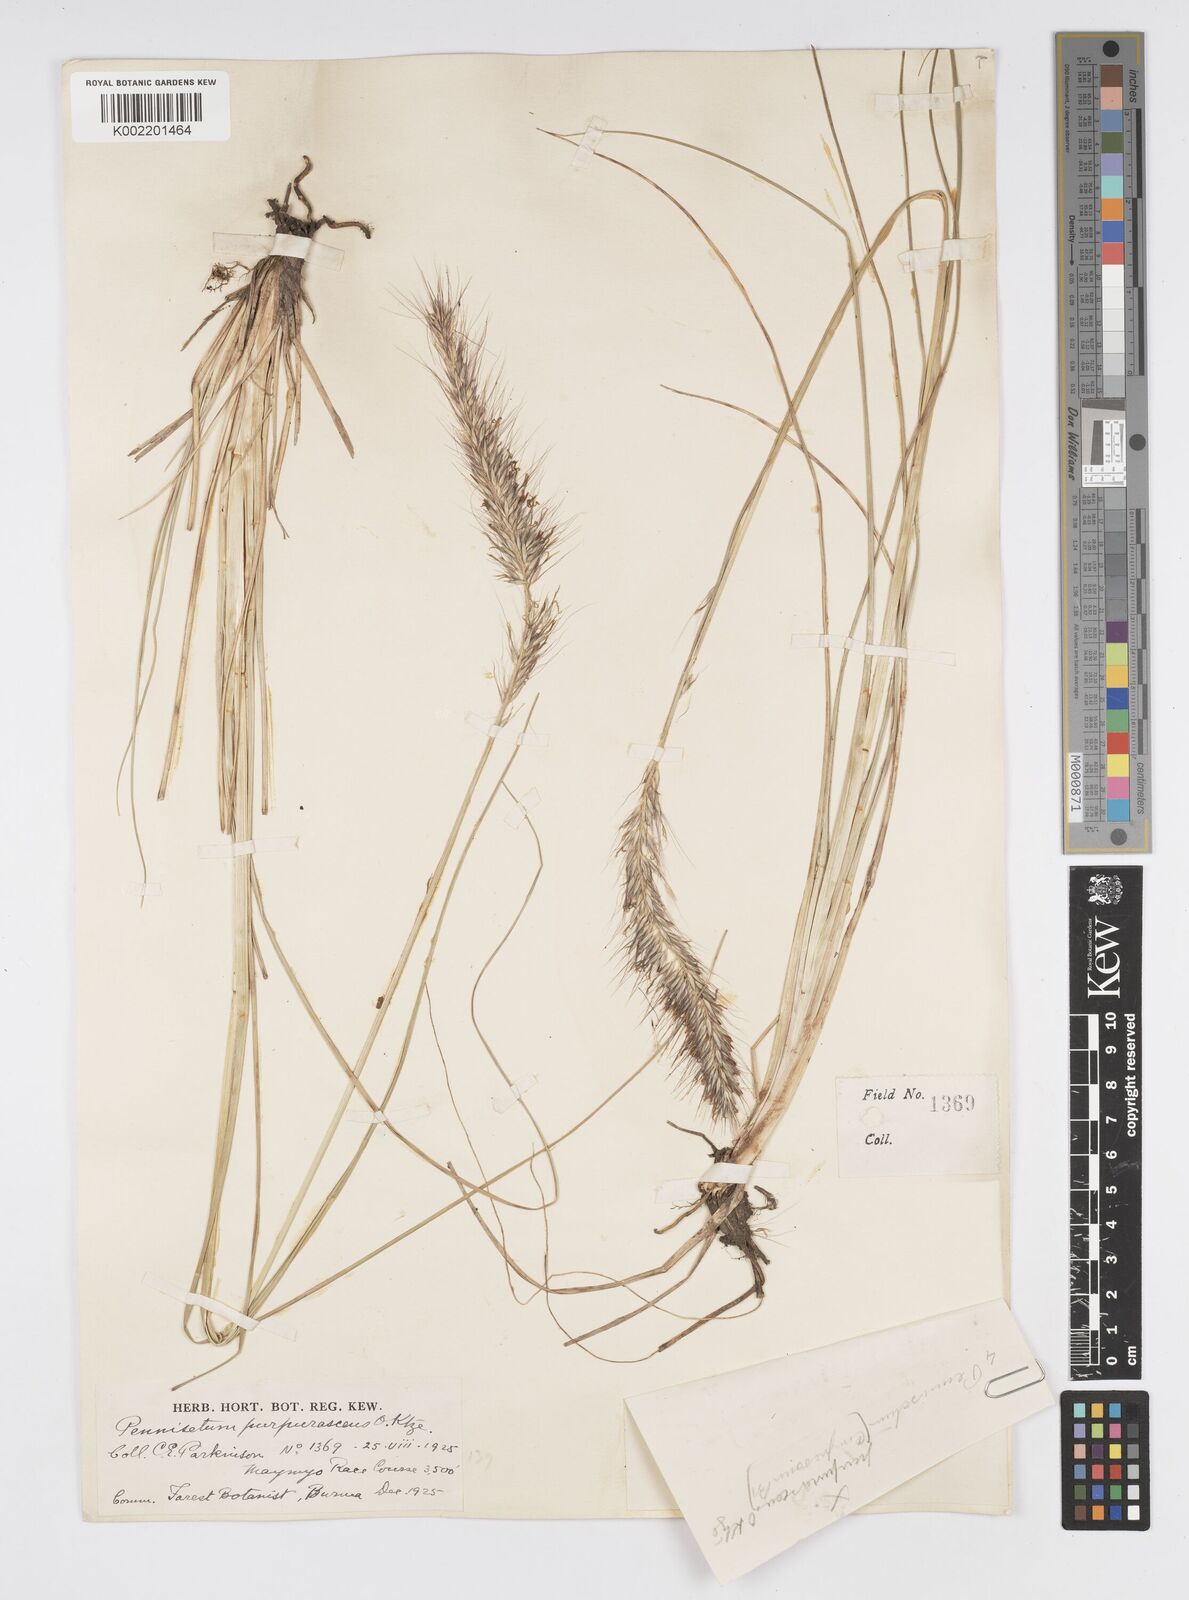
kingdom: Plantae
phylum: Tracheophyta
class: Liliopsida
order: Poales
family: Poaceae
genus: Cenchrus
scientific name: Cenchrus alopecuroides
